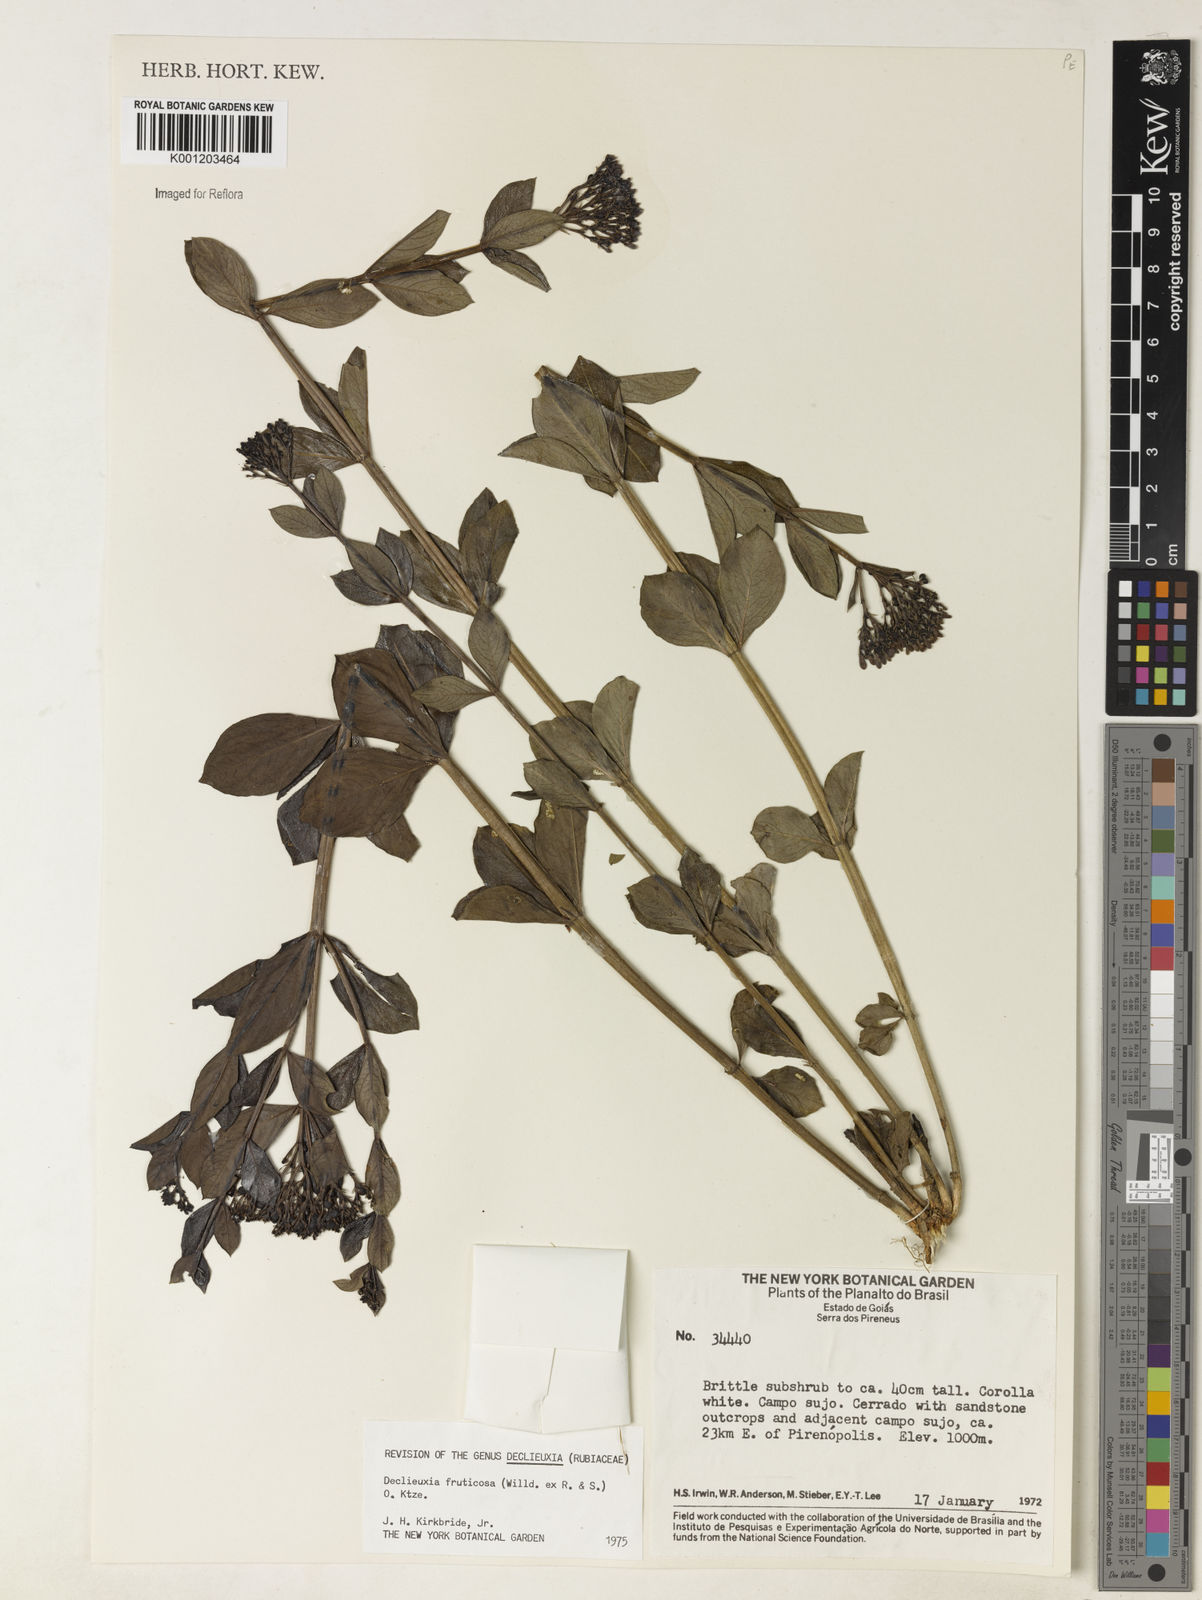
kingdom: Plantae
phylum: Tracheophyta
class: Magnoliopsida
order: Gentianales
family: Rubiaceae
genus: Declieuxia
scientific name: Declieuxia fruticosa
